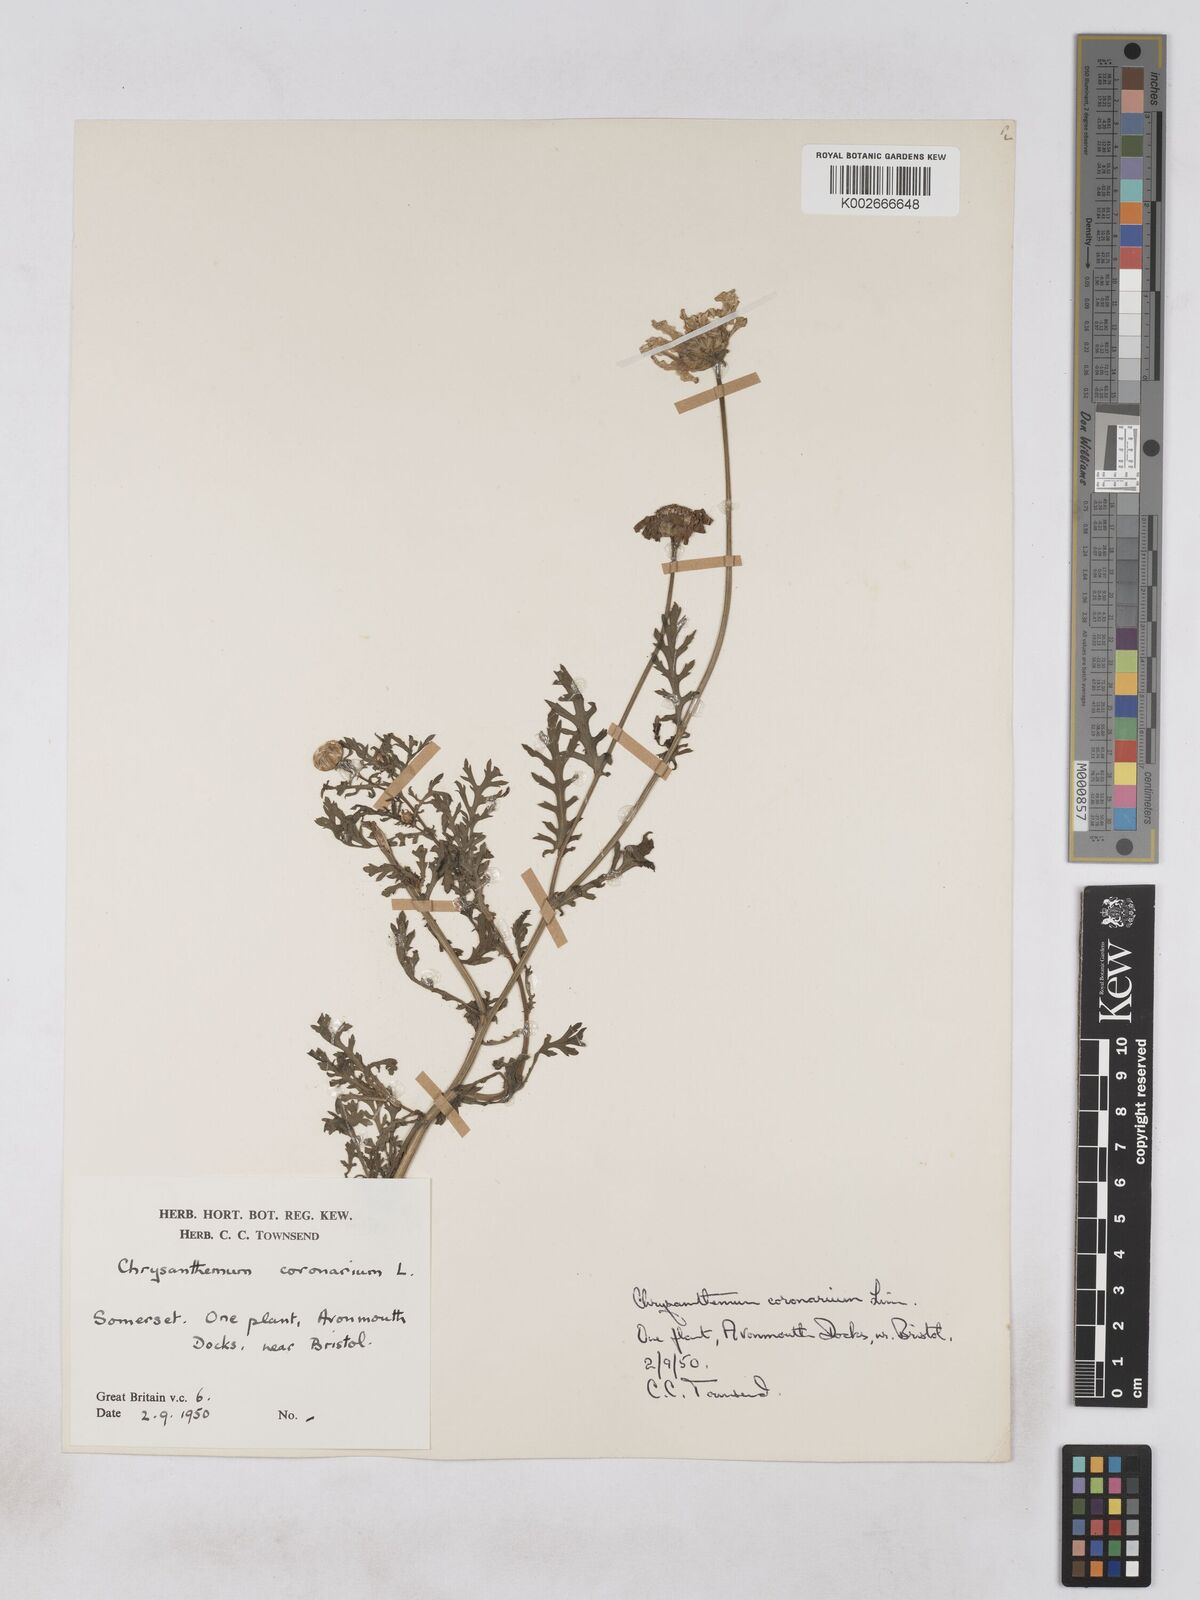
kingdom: Plantae
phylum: Tracheophyta
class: Magnoliopsida
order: Asterales
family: Asteraceae
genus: Glebionis
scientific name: Glebionis coronaria
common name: Crowndaisy
